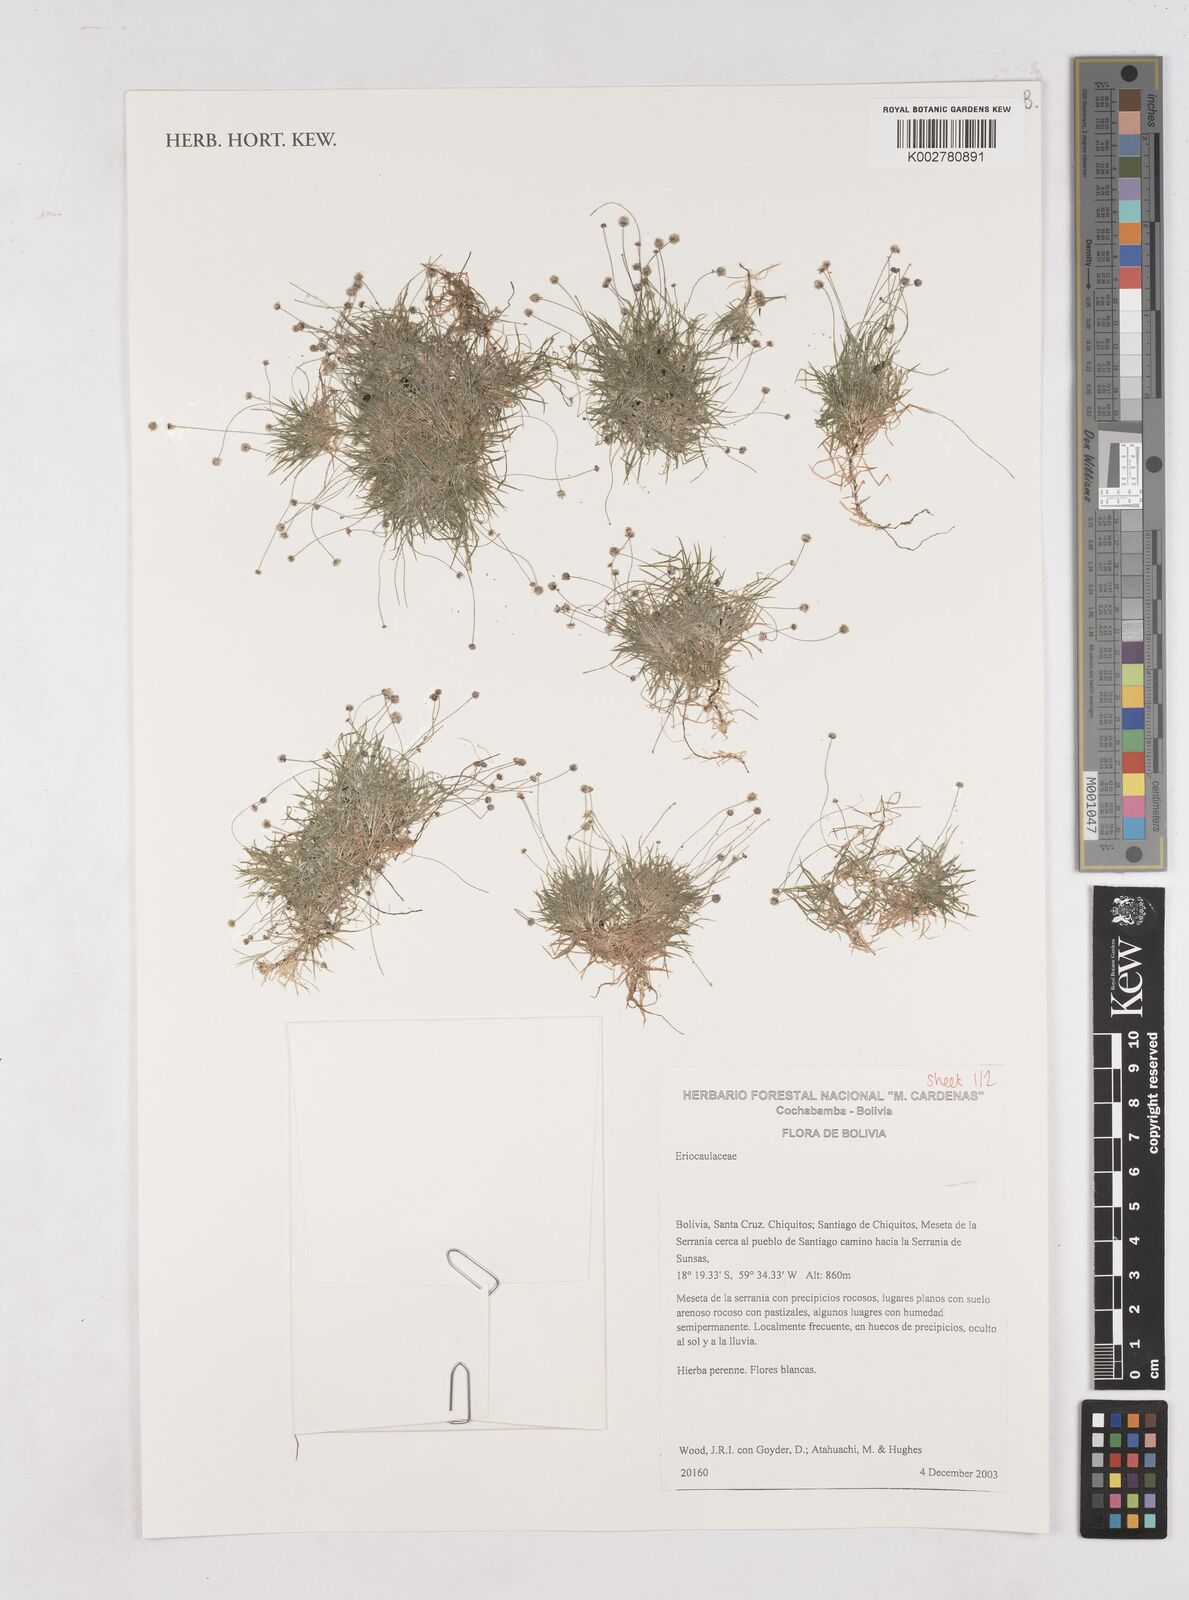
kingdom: Plantae
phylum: Tracheophyta
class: Liliopsida
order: Poales
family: Eriocaulaceae
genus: Paepalanthus
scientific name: Paepalanthus
